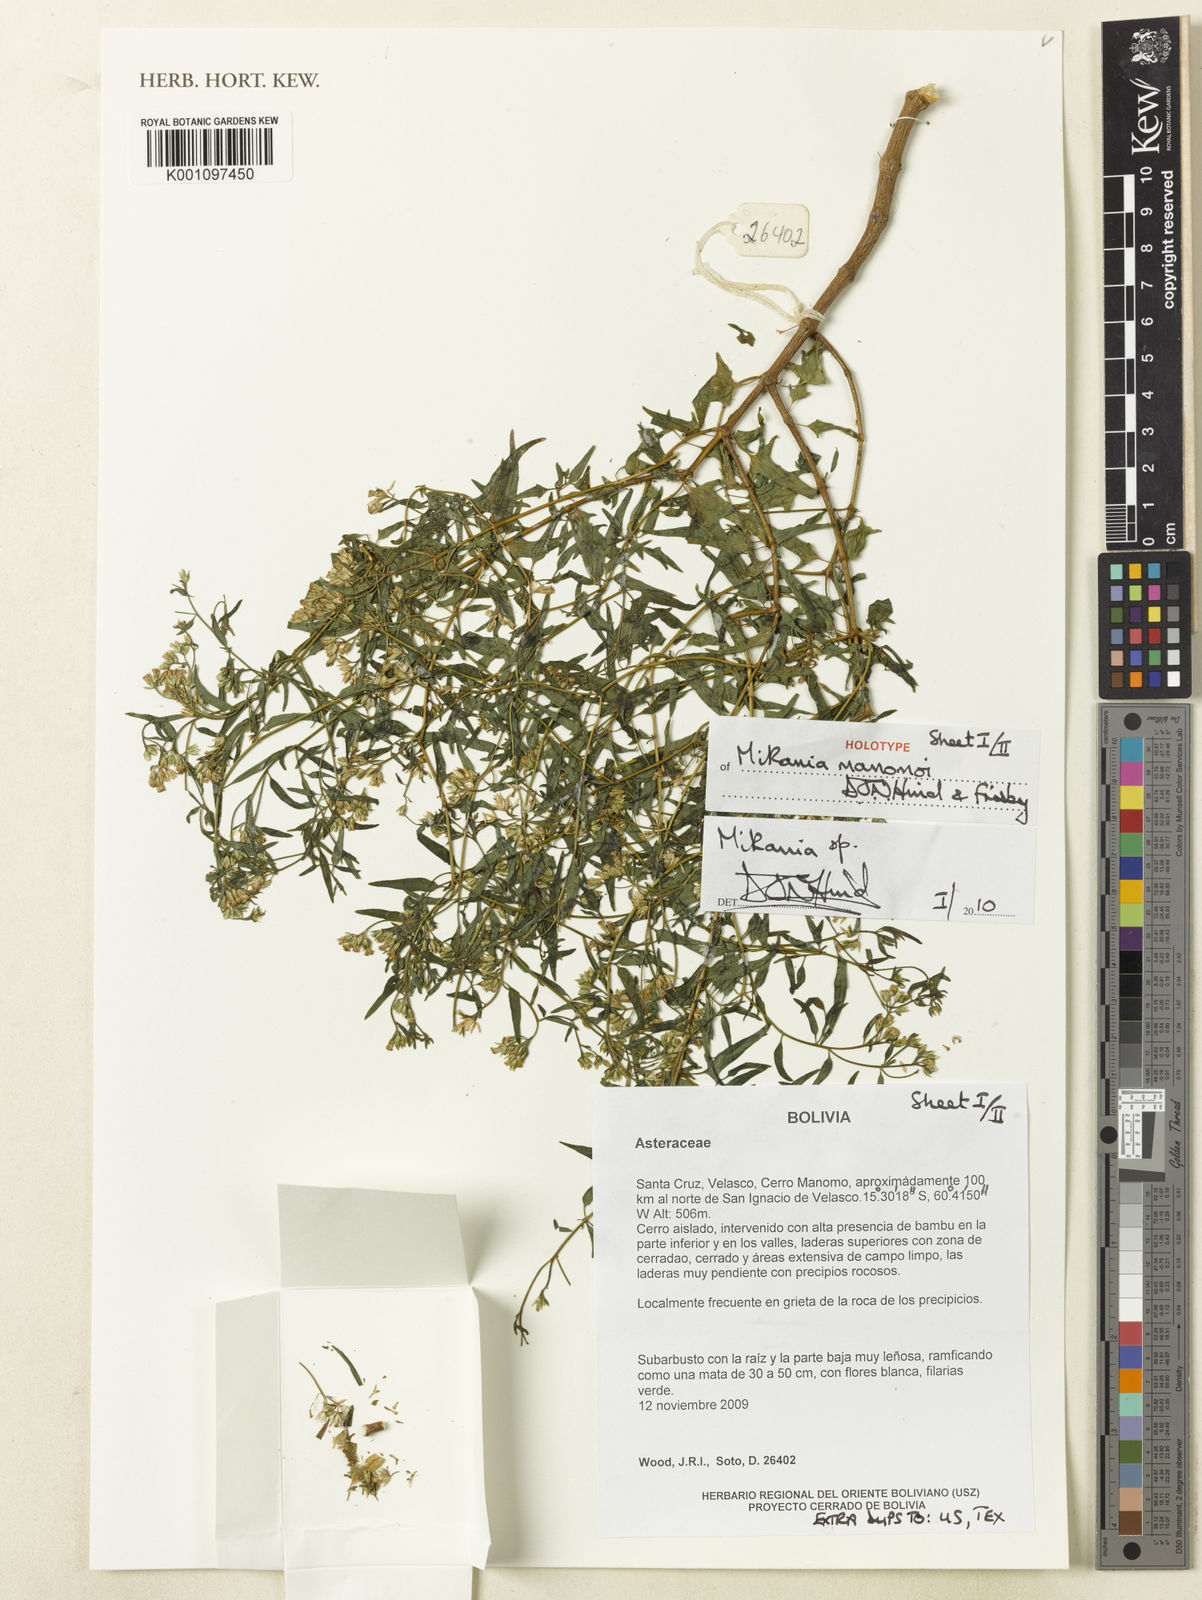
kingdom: Plantae
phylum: Tracheophyta
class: Magnoliopsida
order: Asterales
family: Asteraceae
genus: Mikania
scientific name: Mikania manomoi
